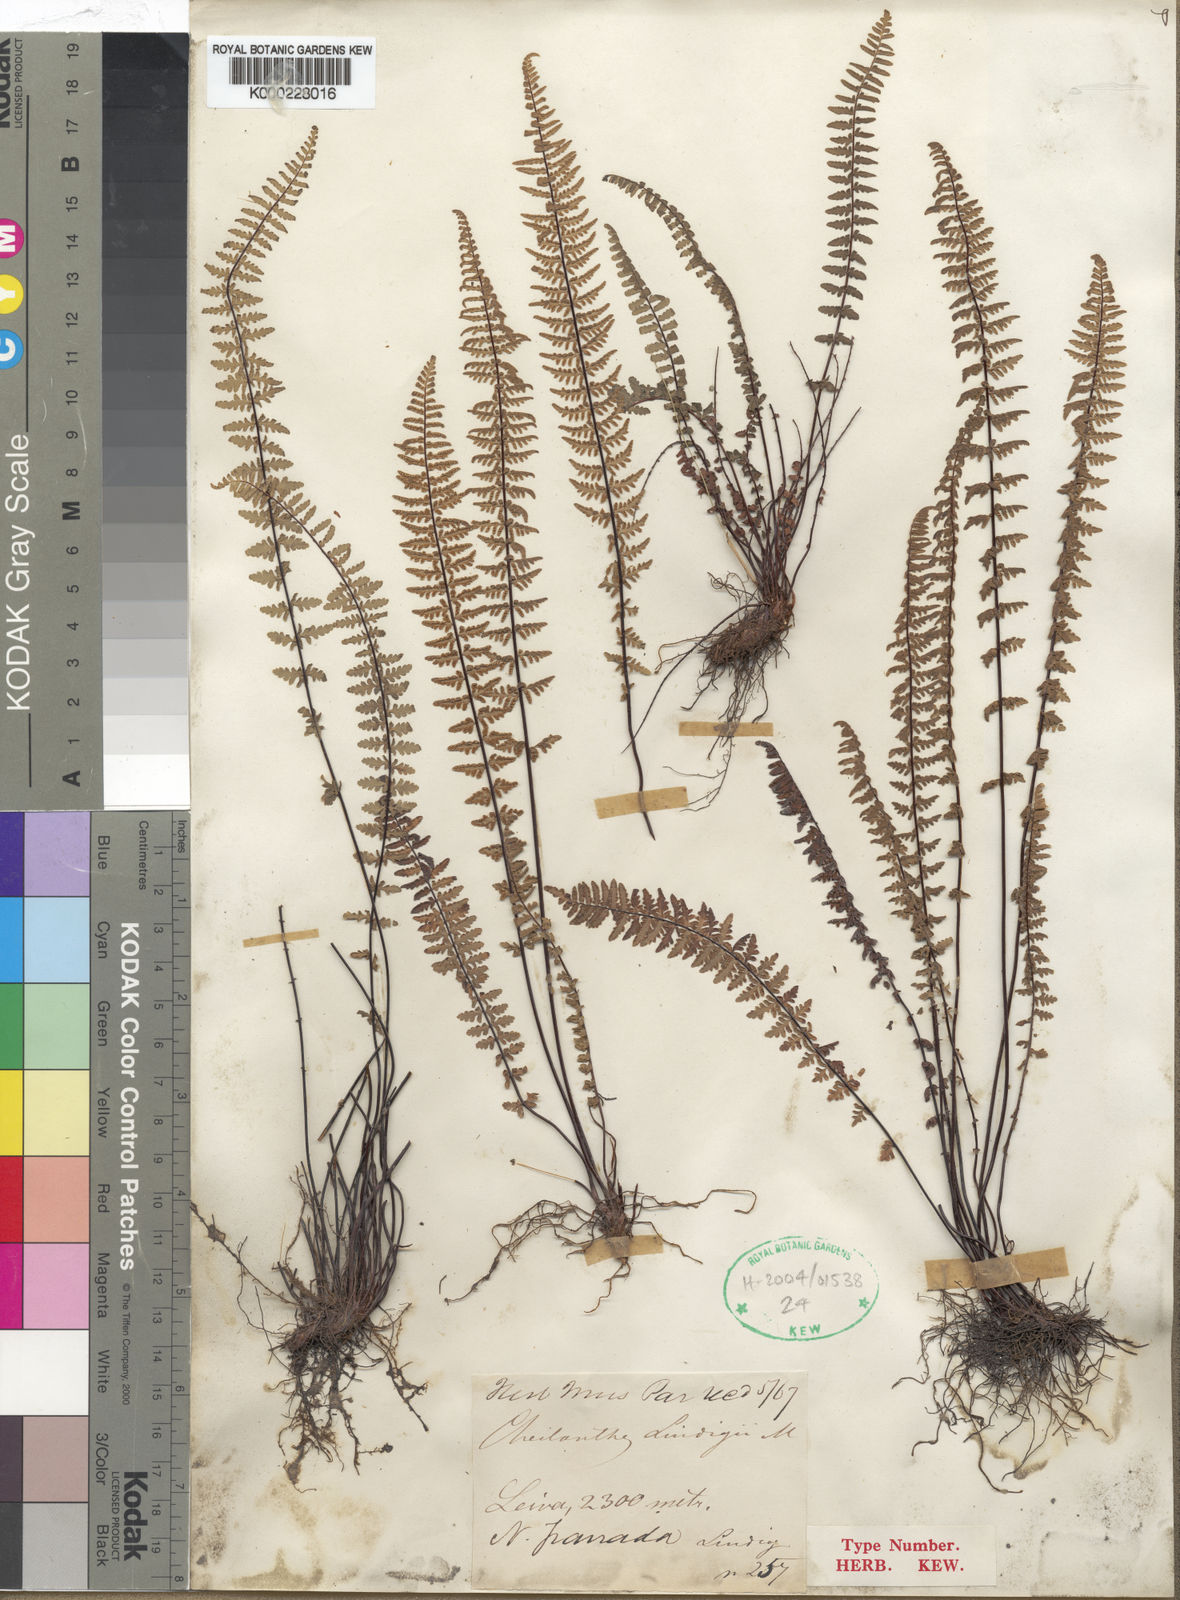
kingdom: Plantae
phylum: Tracheophyta
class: Polypodiopsida
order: Polypodiales
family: Pteridaceae
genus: Adiantopsis
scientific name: Adiantopsis lindigii
